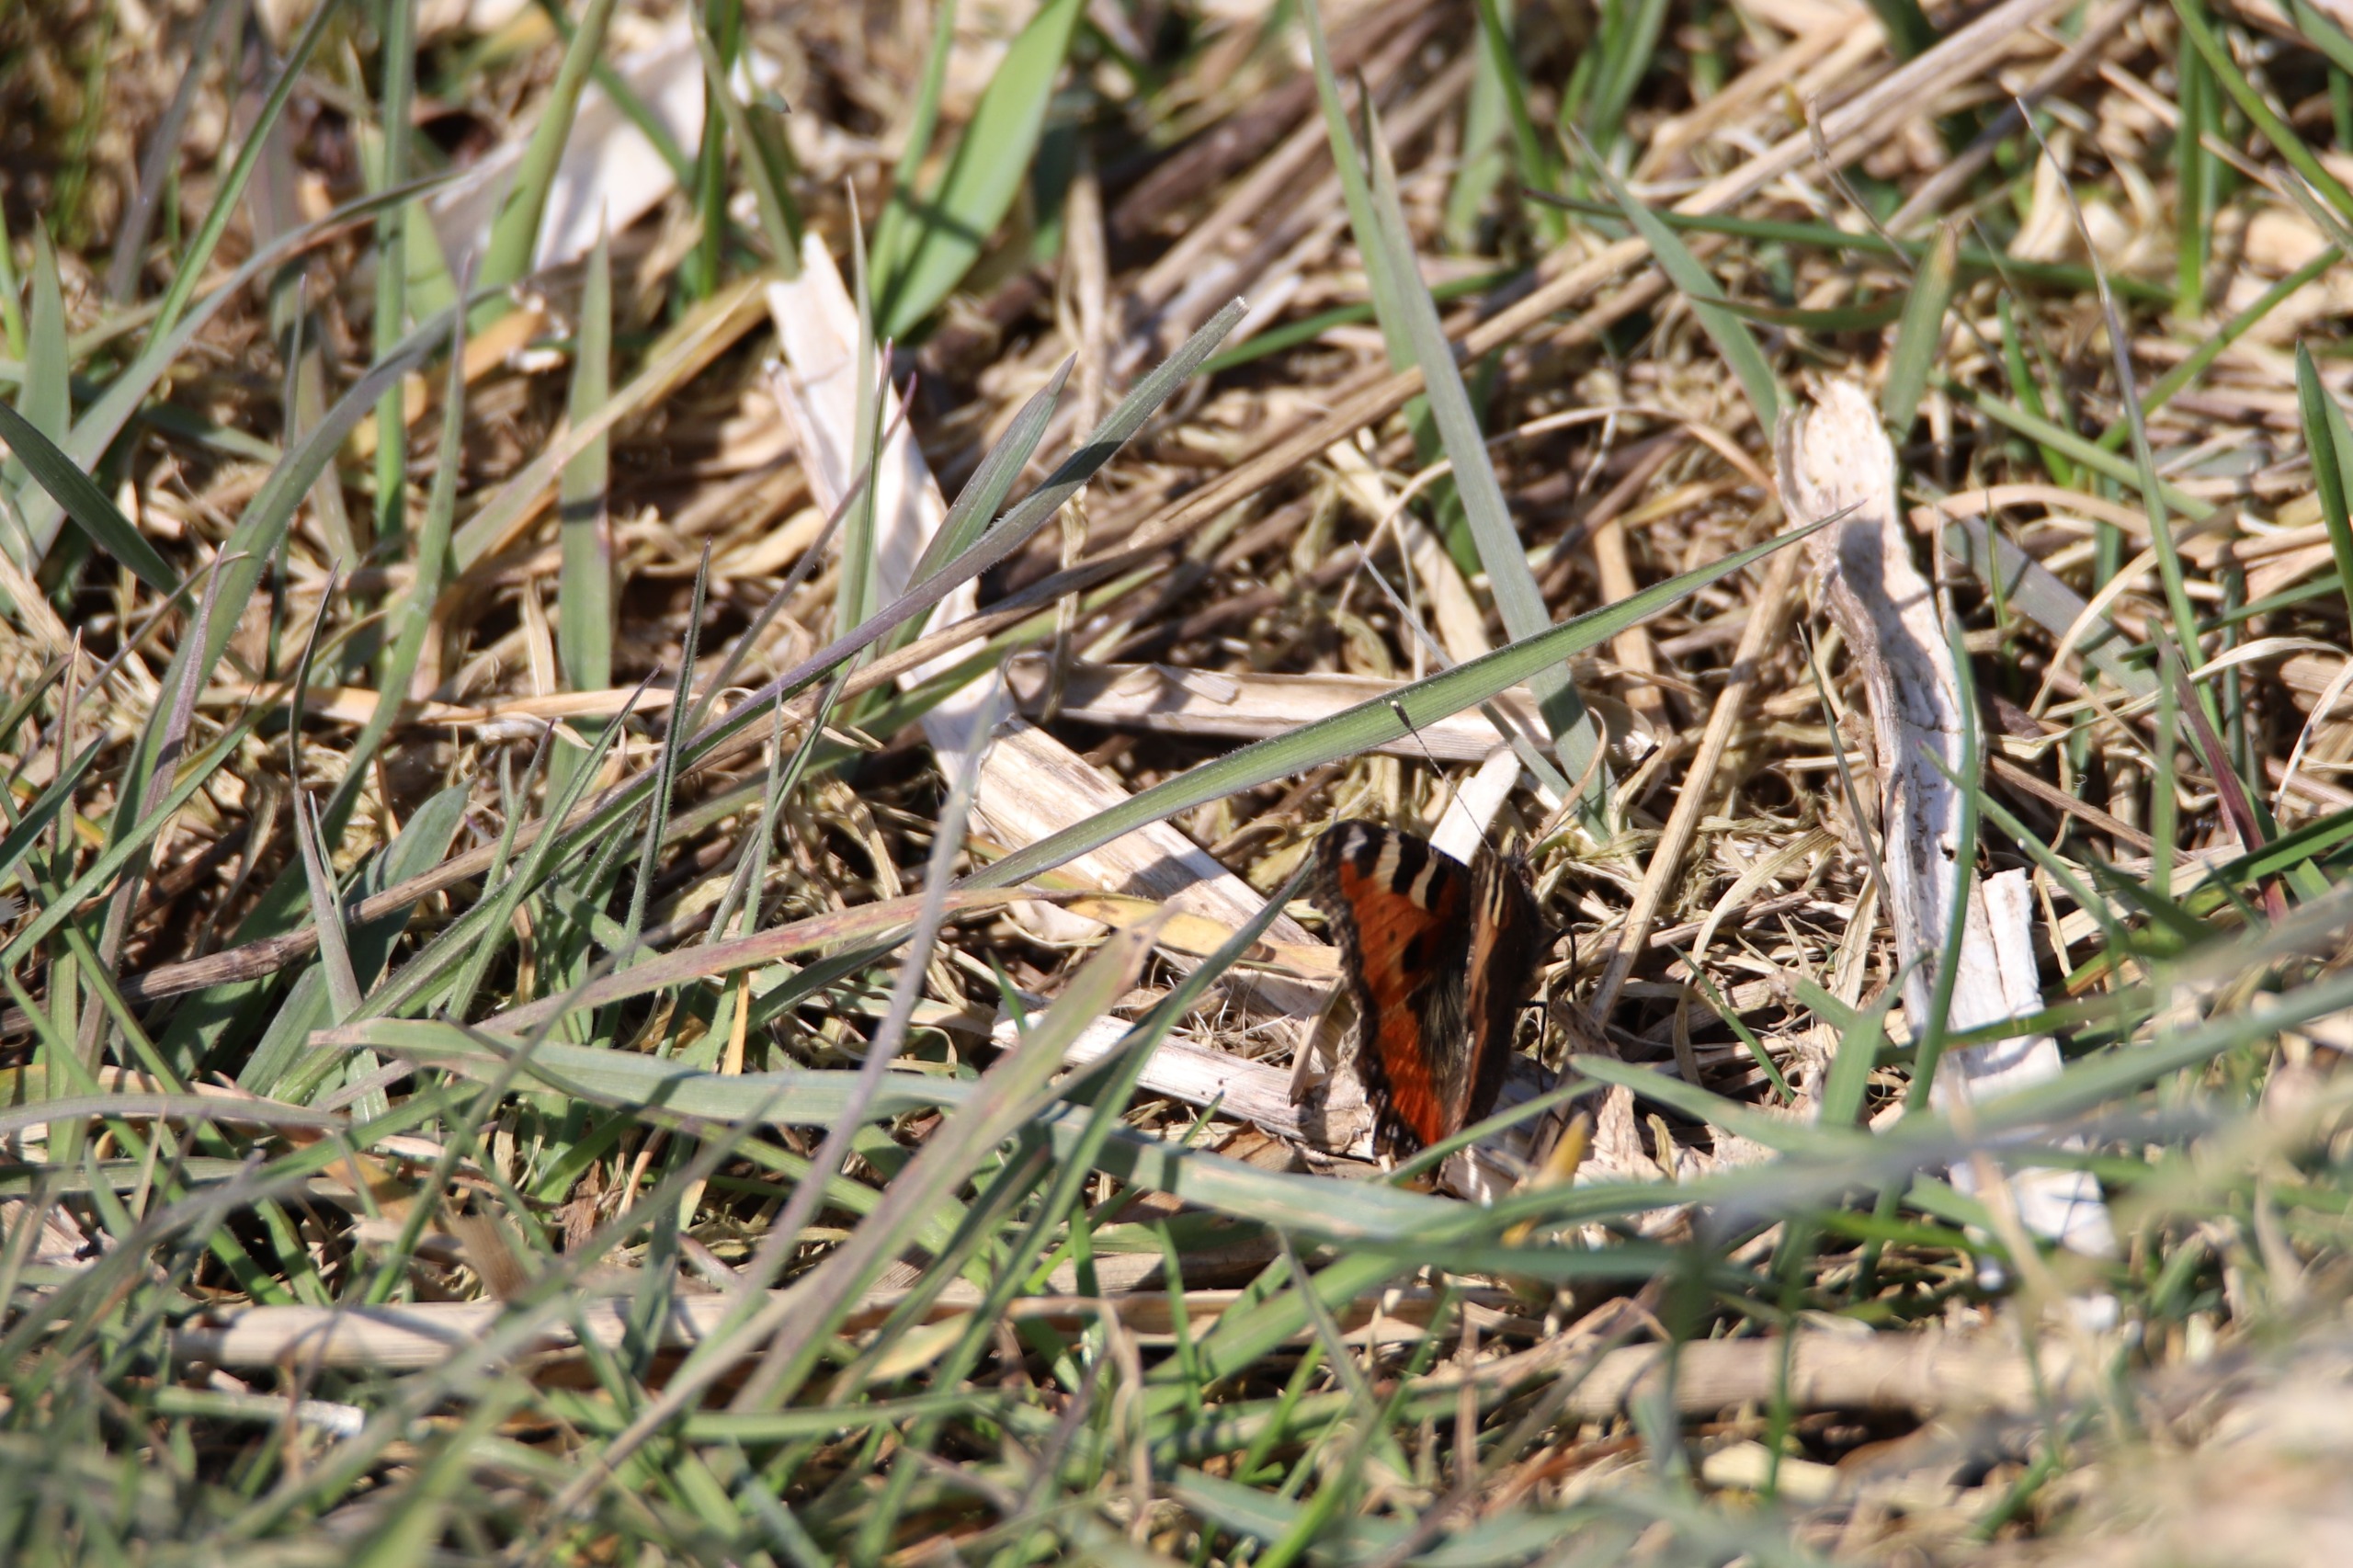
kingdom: Animalia
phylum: Arthropoda
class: Insecta
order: Lepidoptera
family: Nymphalidae
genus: Aglais
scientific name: Aglais urticae
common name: Nældens takvinge
